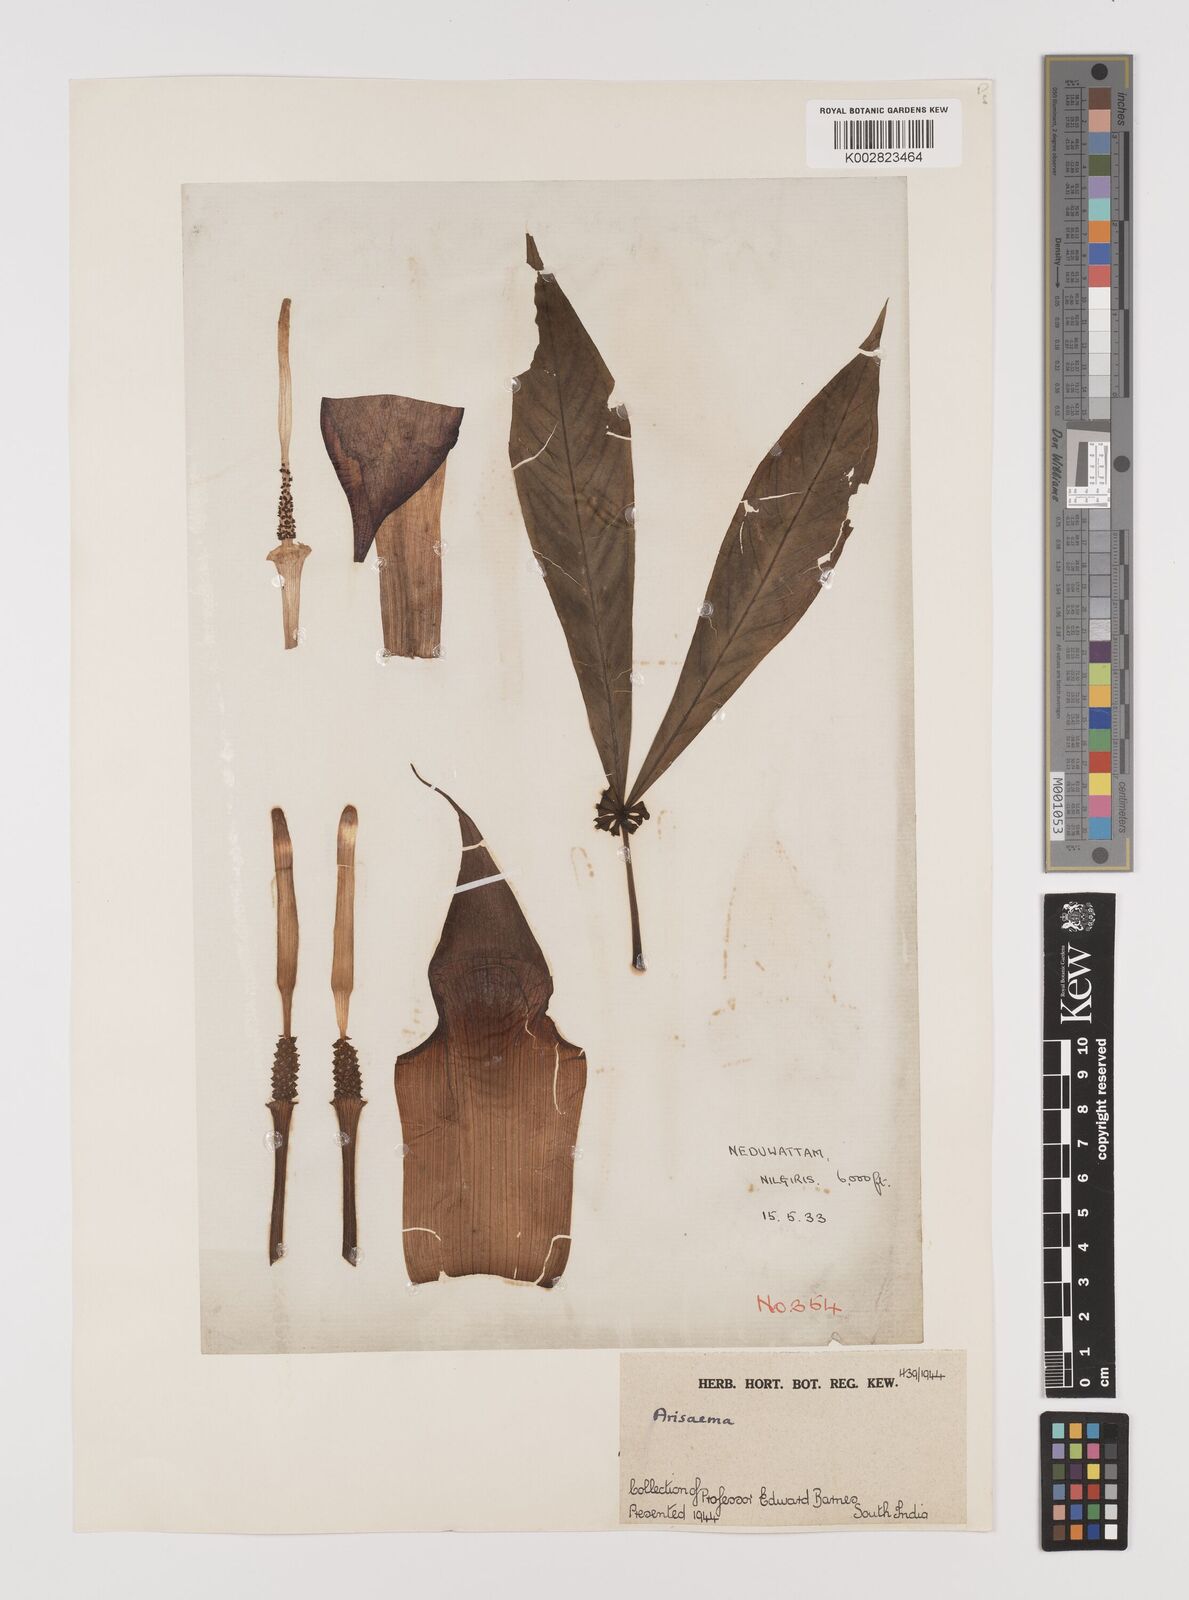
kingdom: Plantae
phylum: Tracheophyta
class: Liliopsida
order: Alismatales
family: Araceae
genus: Arisaema
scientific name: Arisaema
